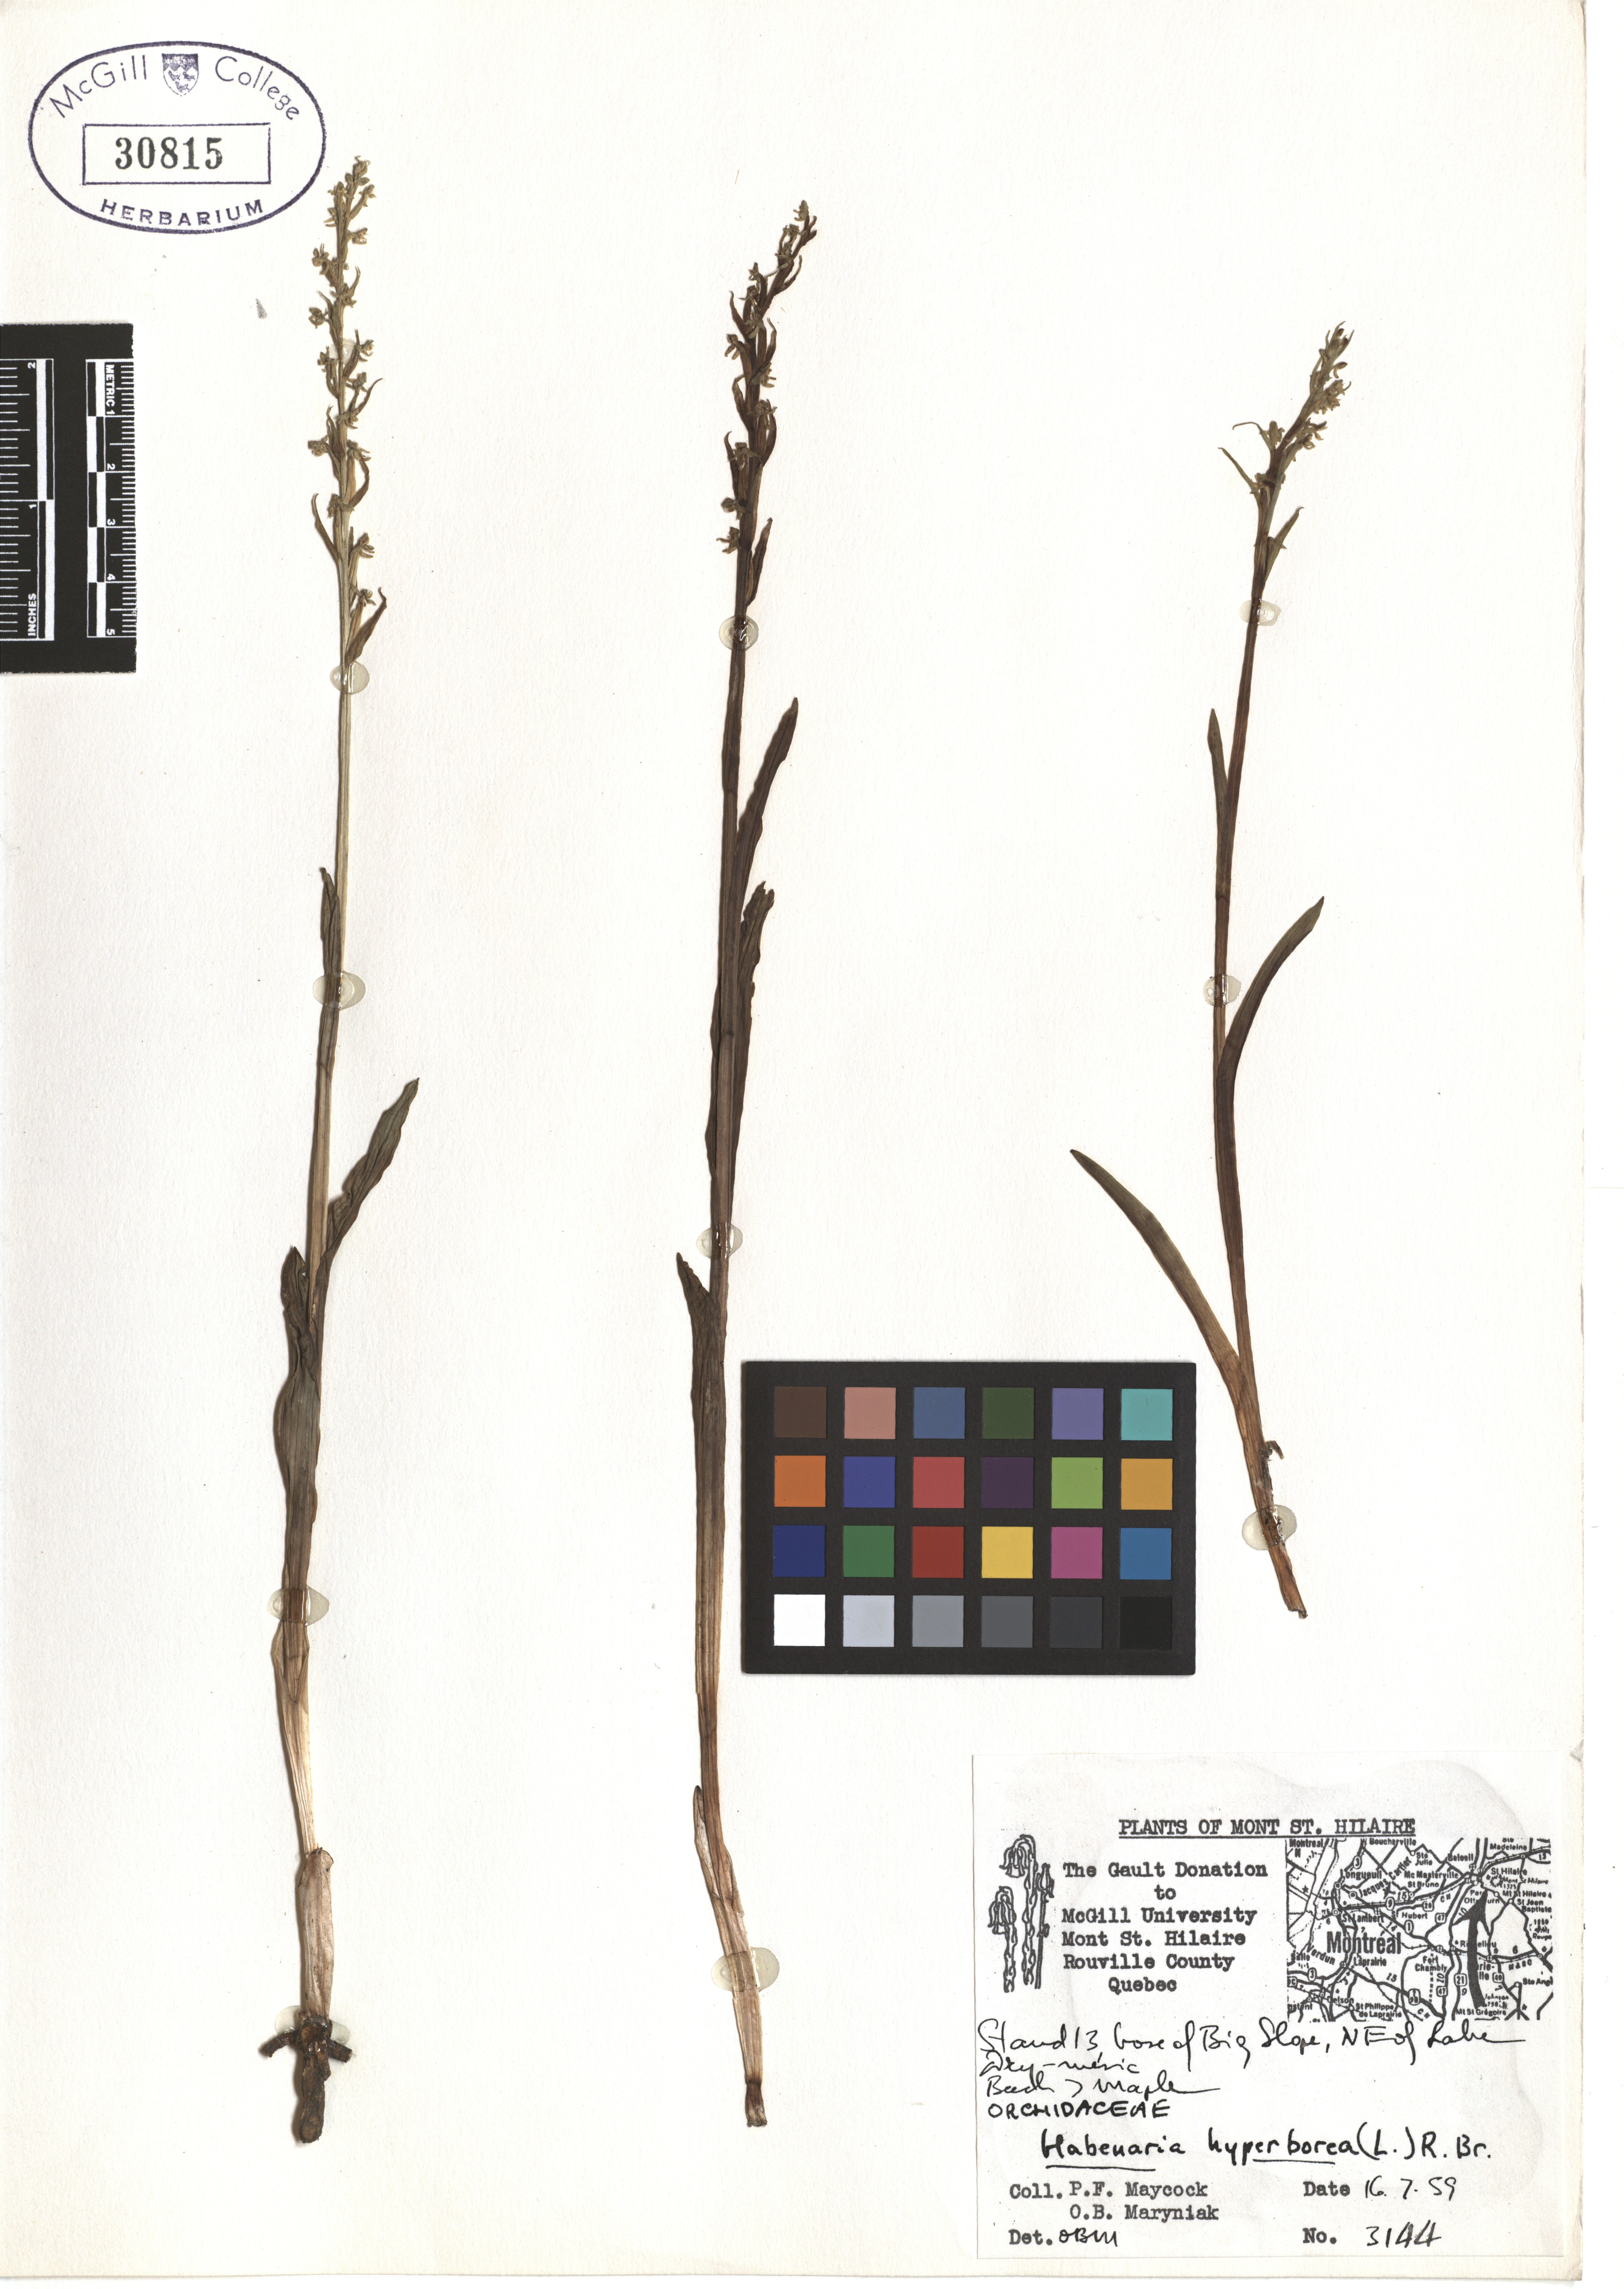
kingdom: Plantae
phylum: Tracheophyta
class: Liliopsida
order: Asparagales
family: Orchidaceae
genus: Platanthera
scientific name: Platanthera hyperborea
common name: Northern green orchid
